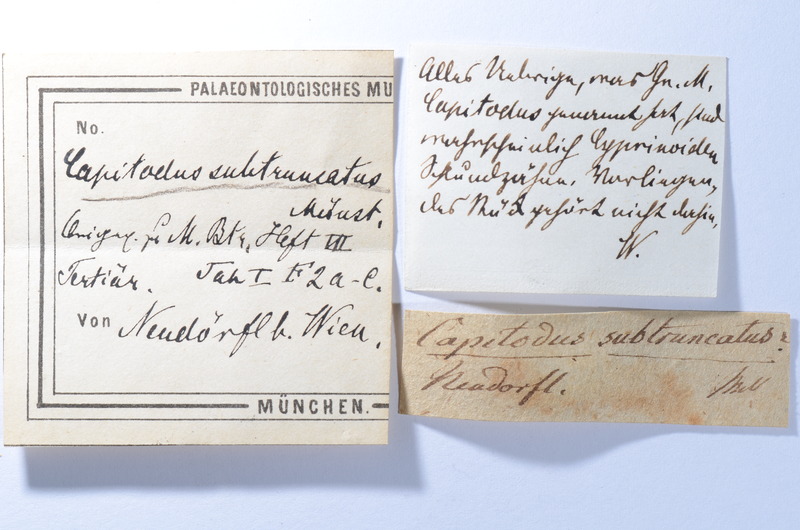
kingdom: Animalia
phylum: Chordata
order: Cypriniformes
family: Cyprinidae
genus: Capitodus
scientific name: Capitodus
